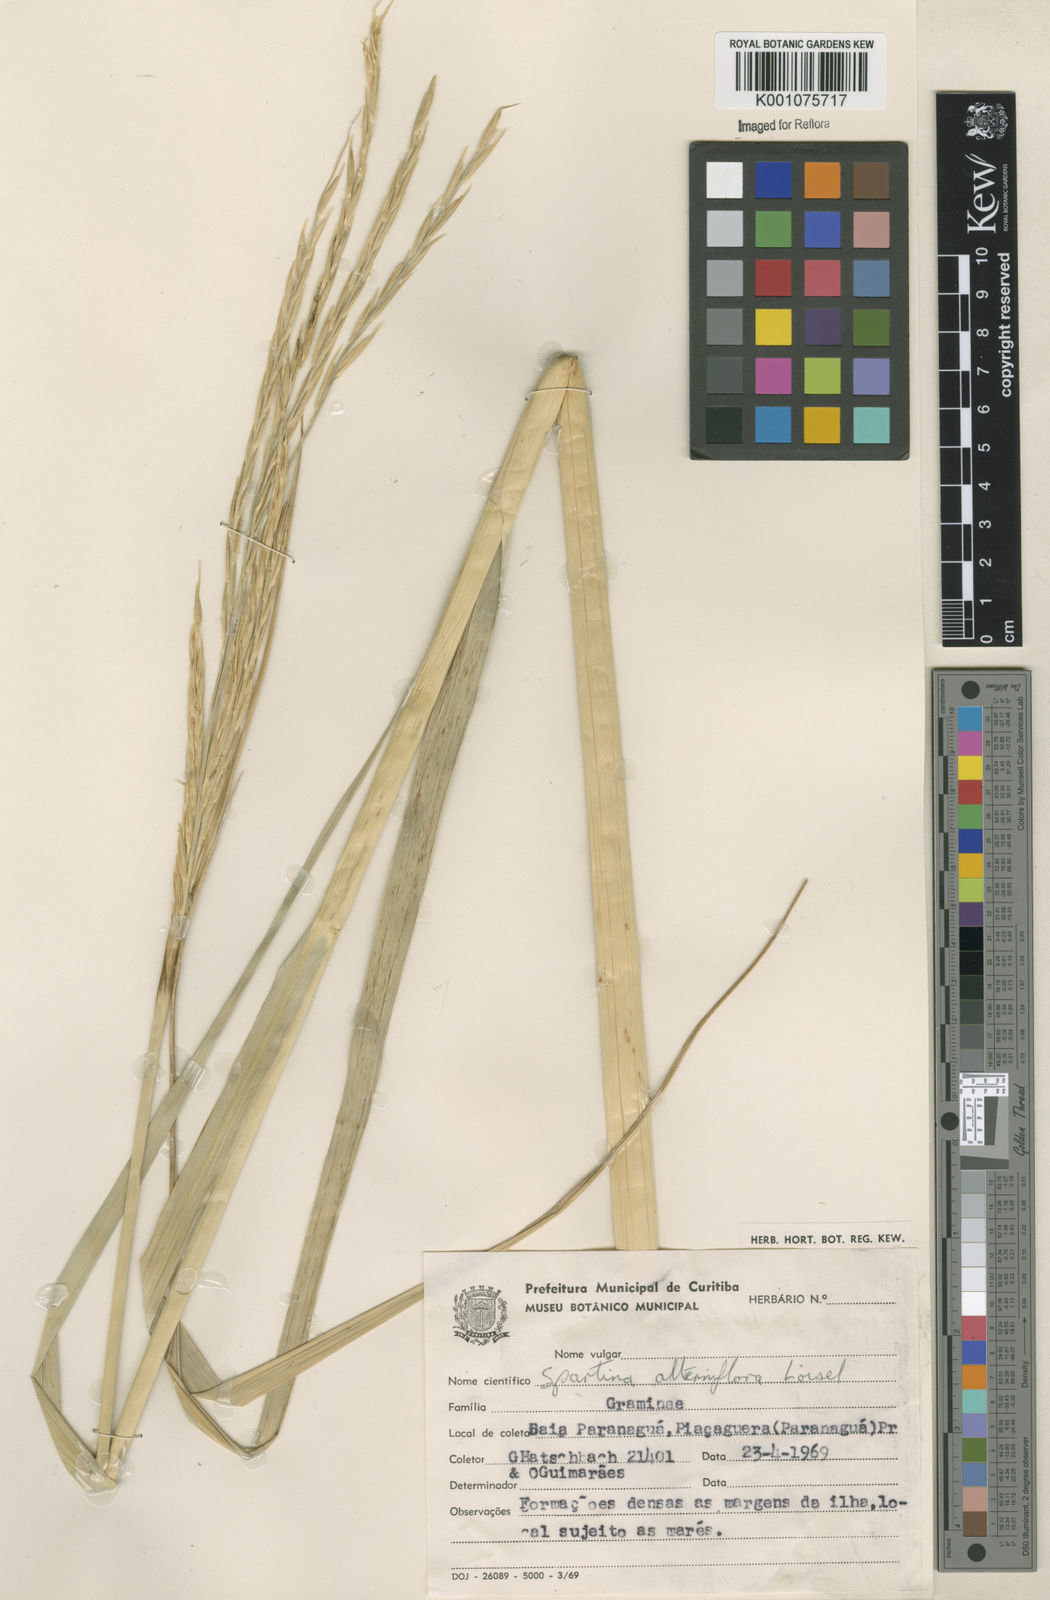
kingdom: Animalia
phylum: Mollusca
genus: Spartina
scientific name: Spartina
